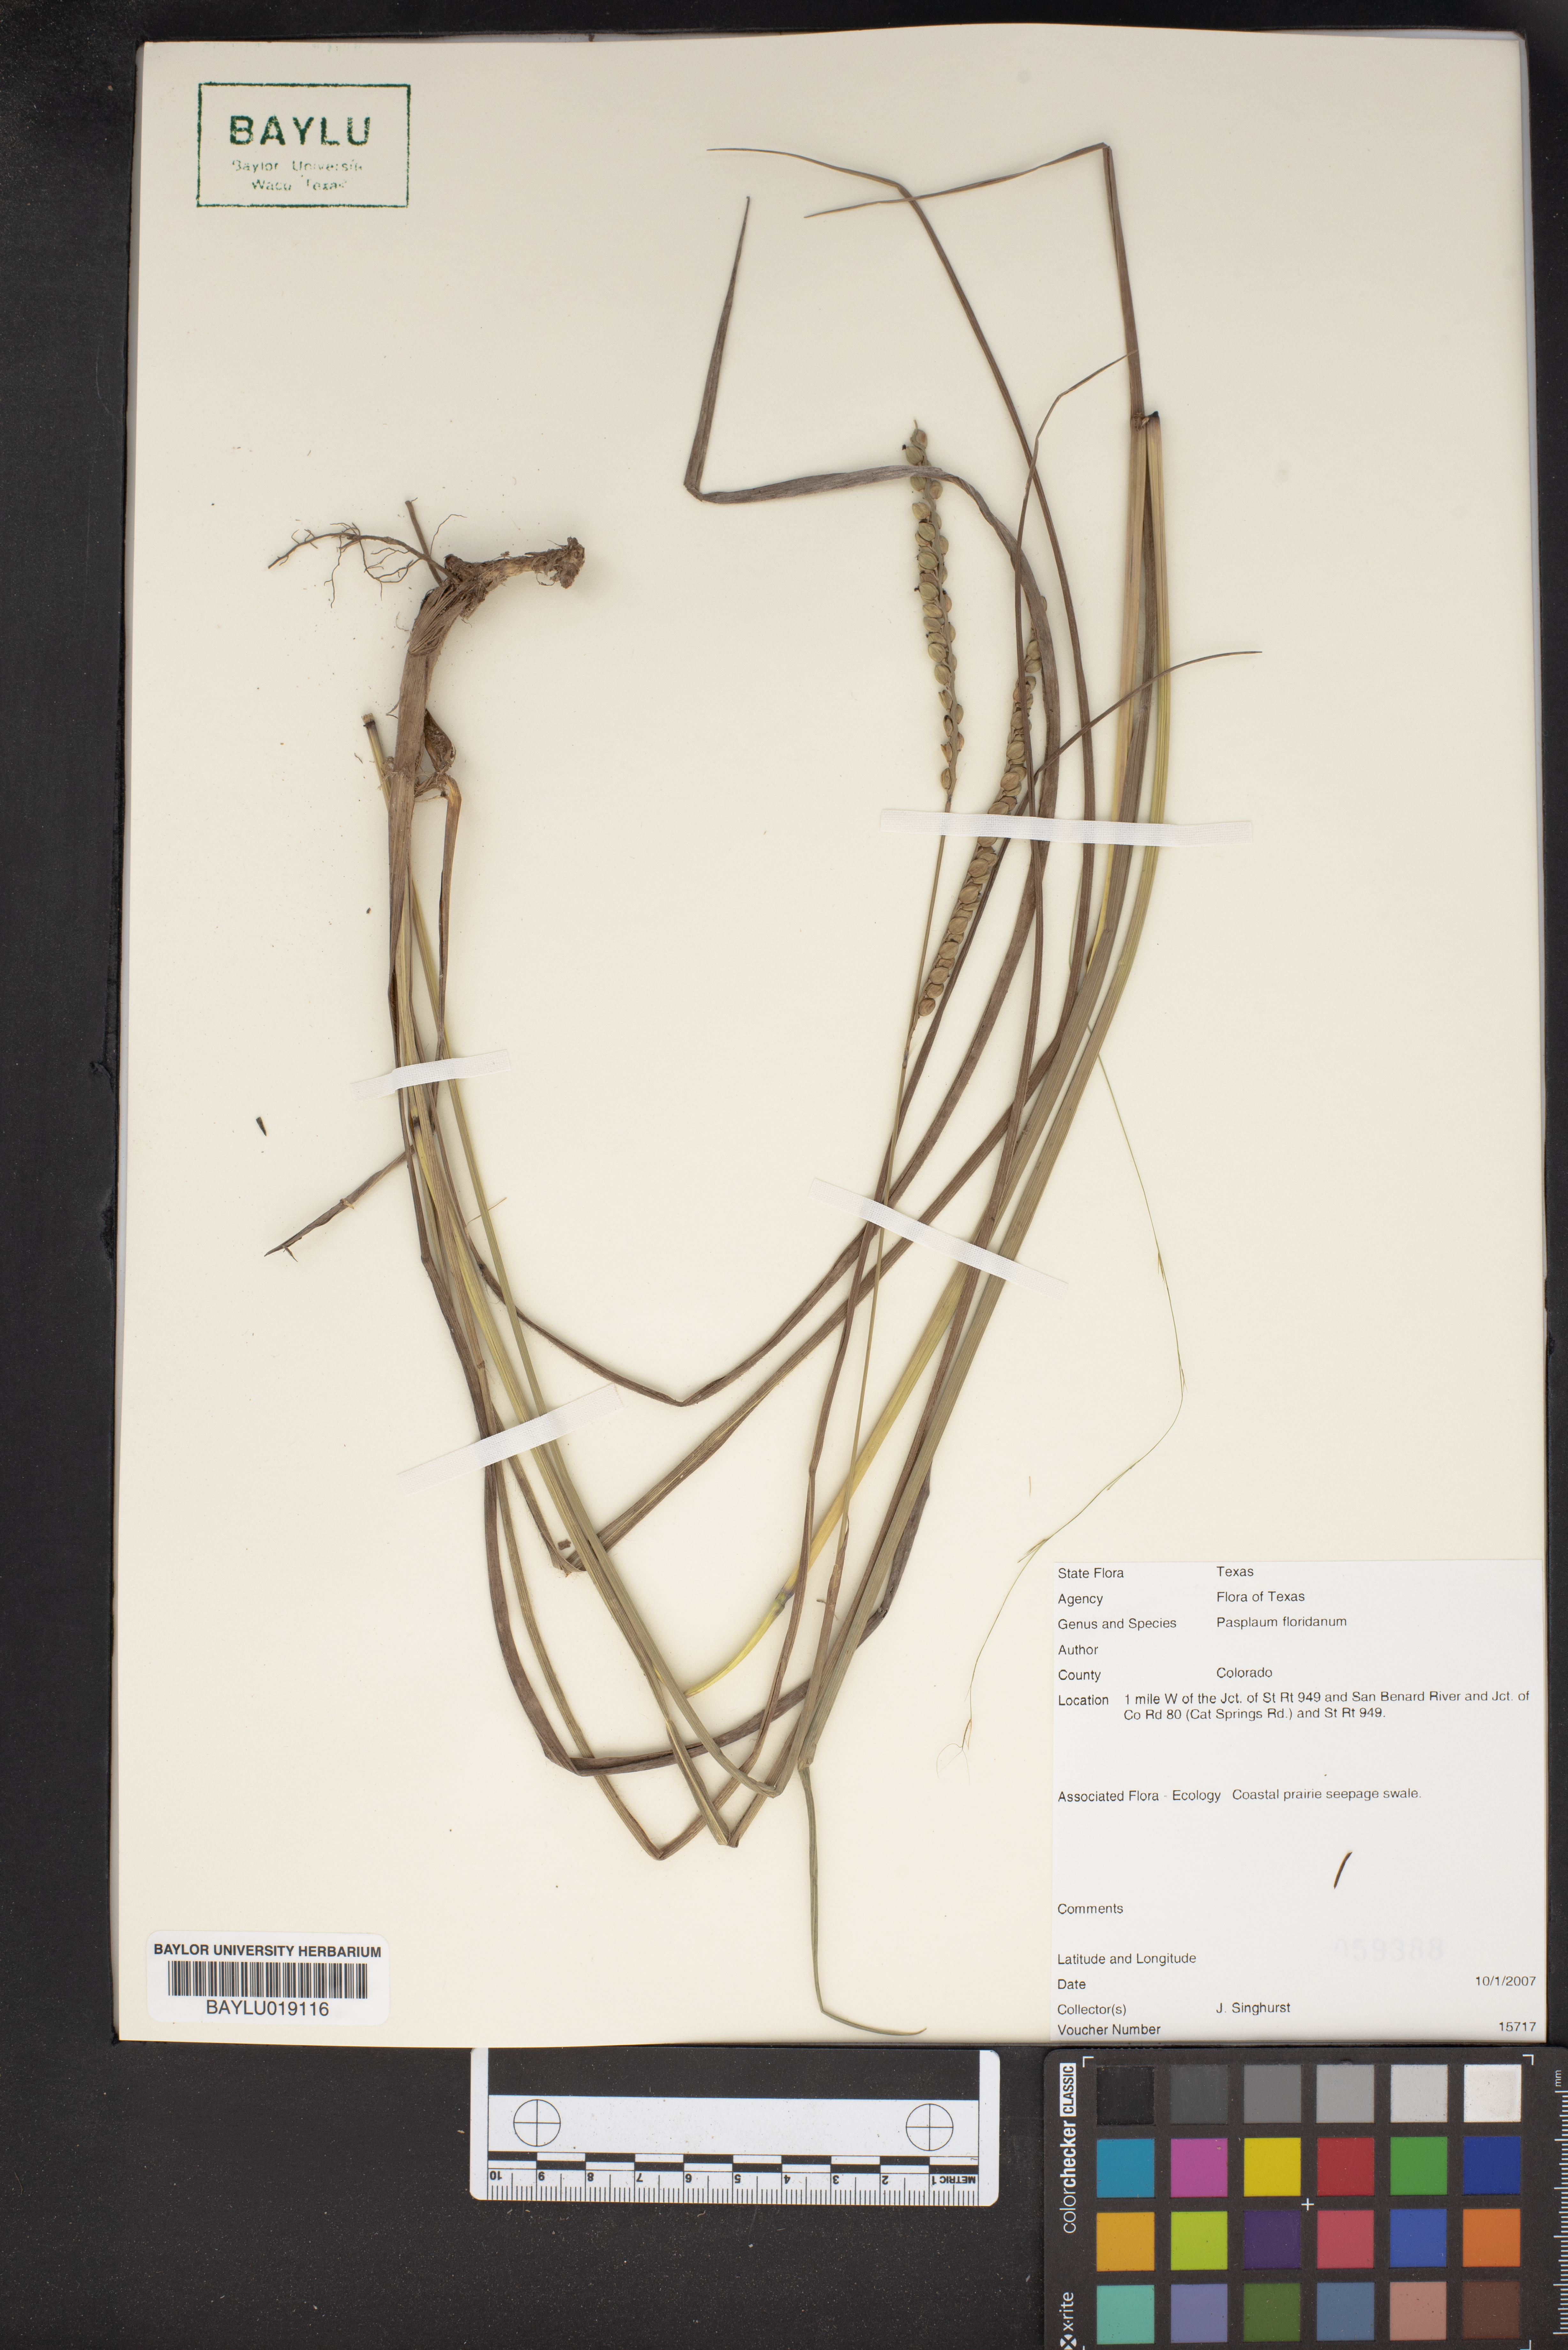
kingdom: Plantae
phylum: Tracheophyta
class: Liliopsida
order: Poales
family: Poaceae
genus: Paspalum
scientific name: Paspalum floridanum
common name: Florida paspalum
